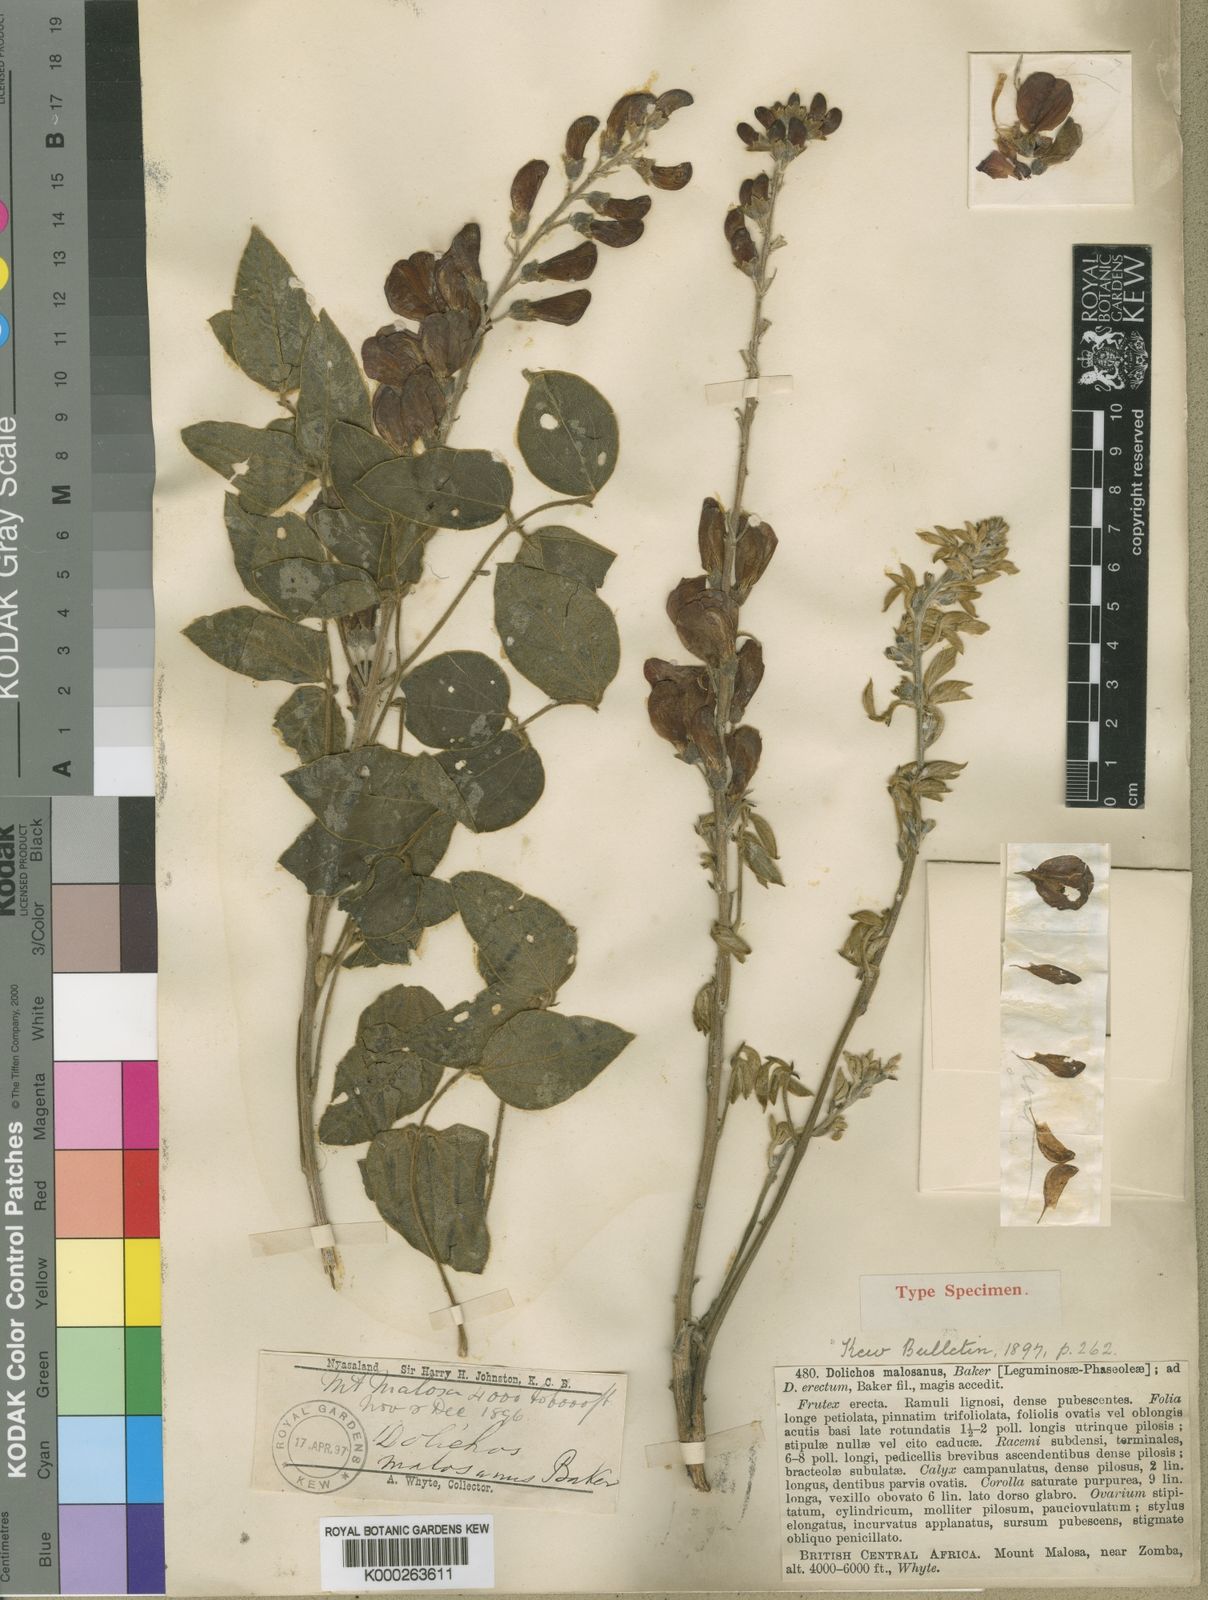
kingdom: Plantae
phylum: Tracheophyta
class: Magnoliopsida
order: Fabales
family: Fabaceae
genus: Dolichos
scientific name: Dolichos kilimandscharicus
